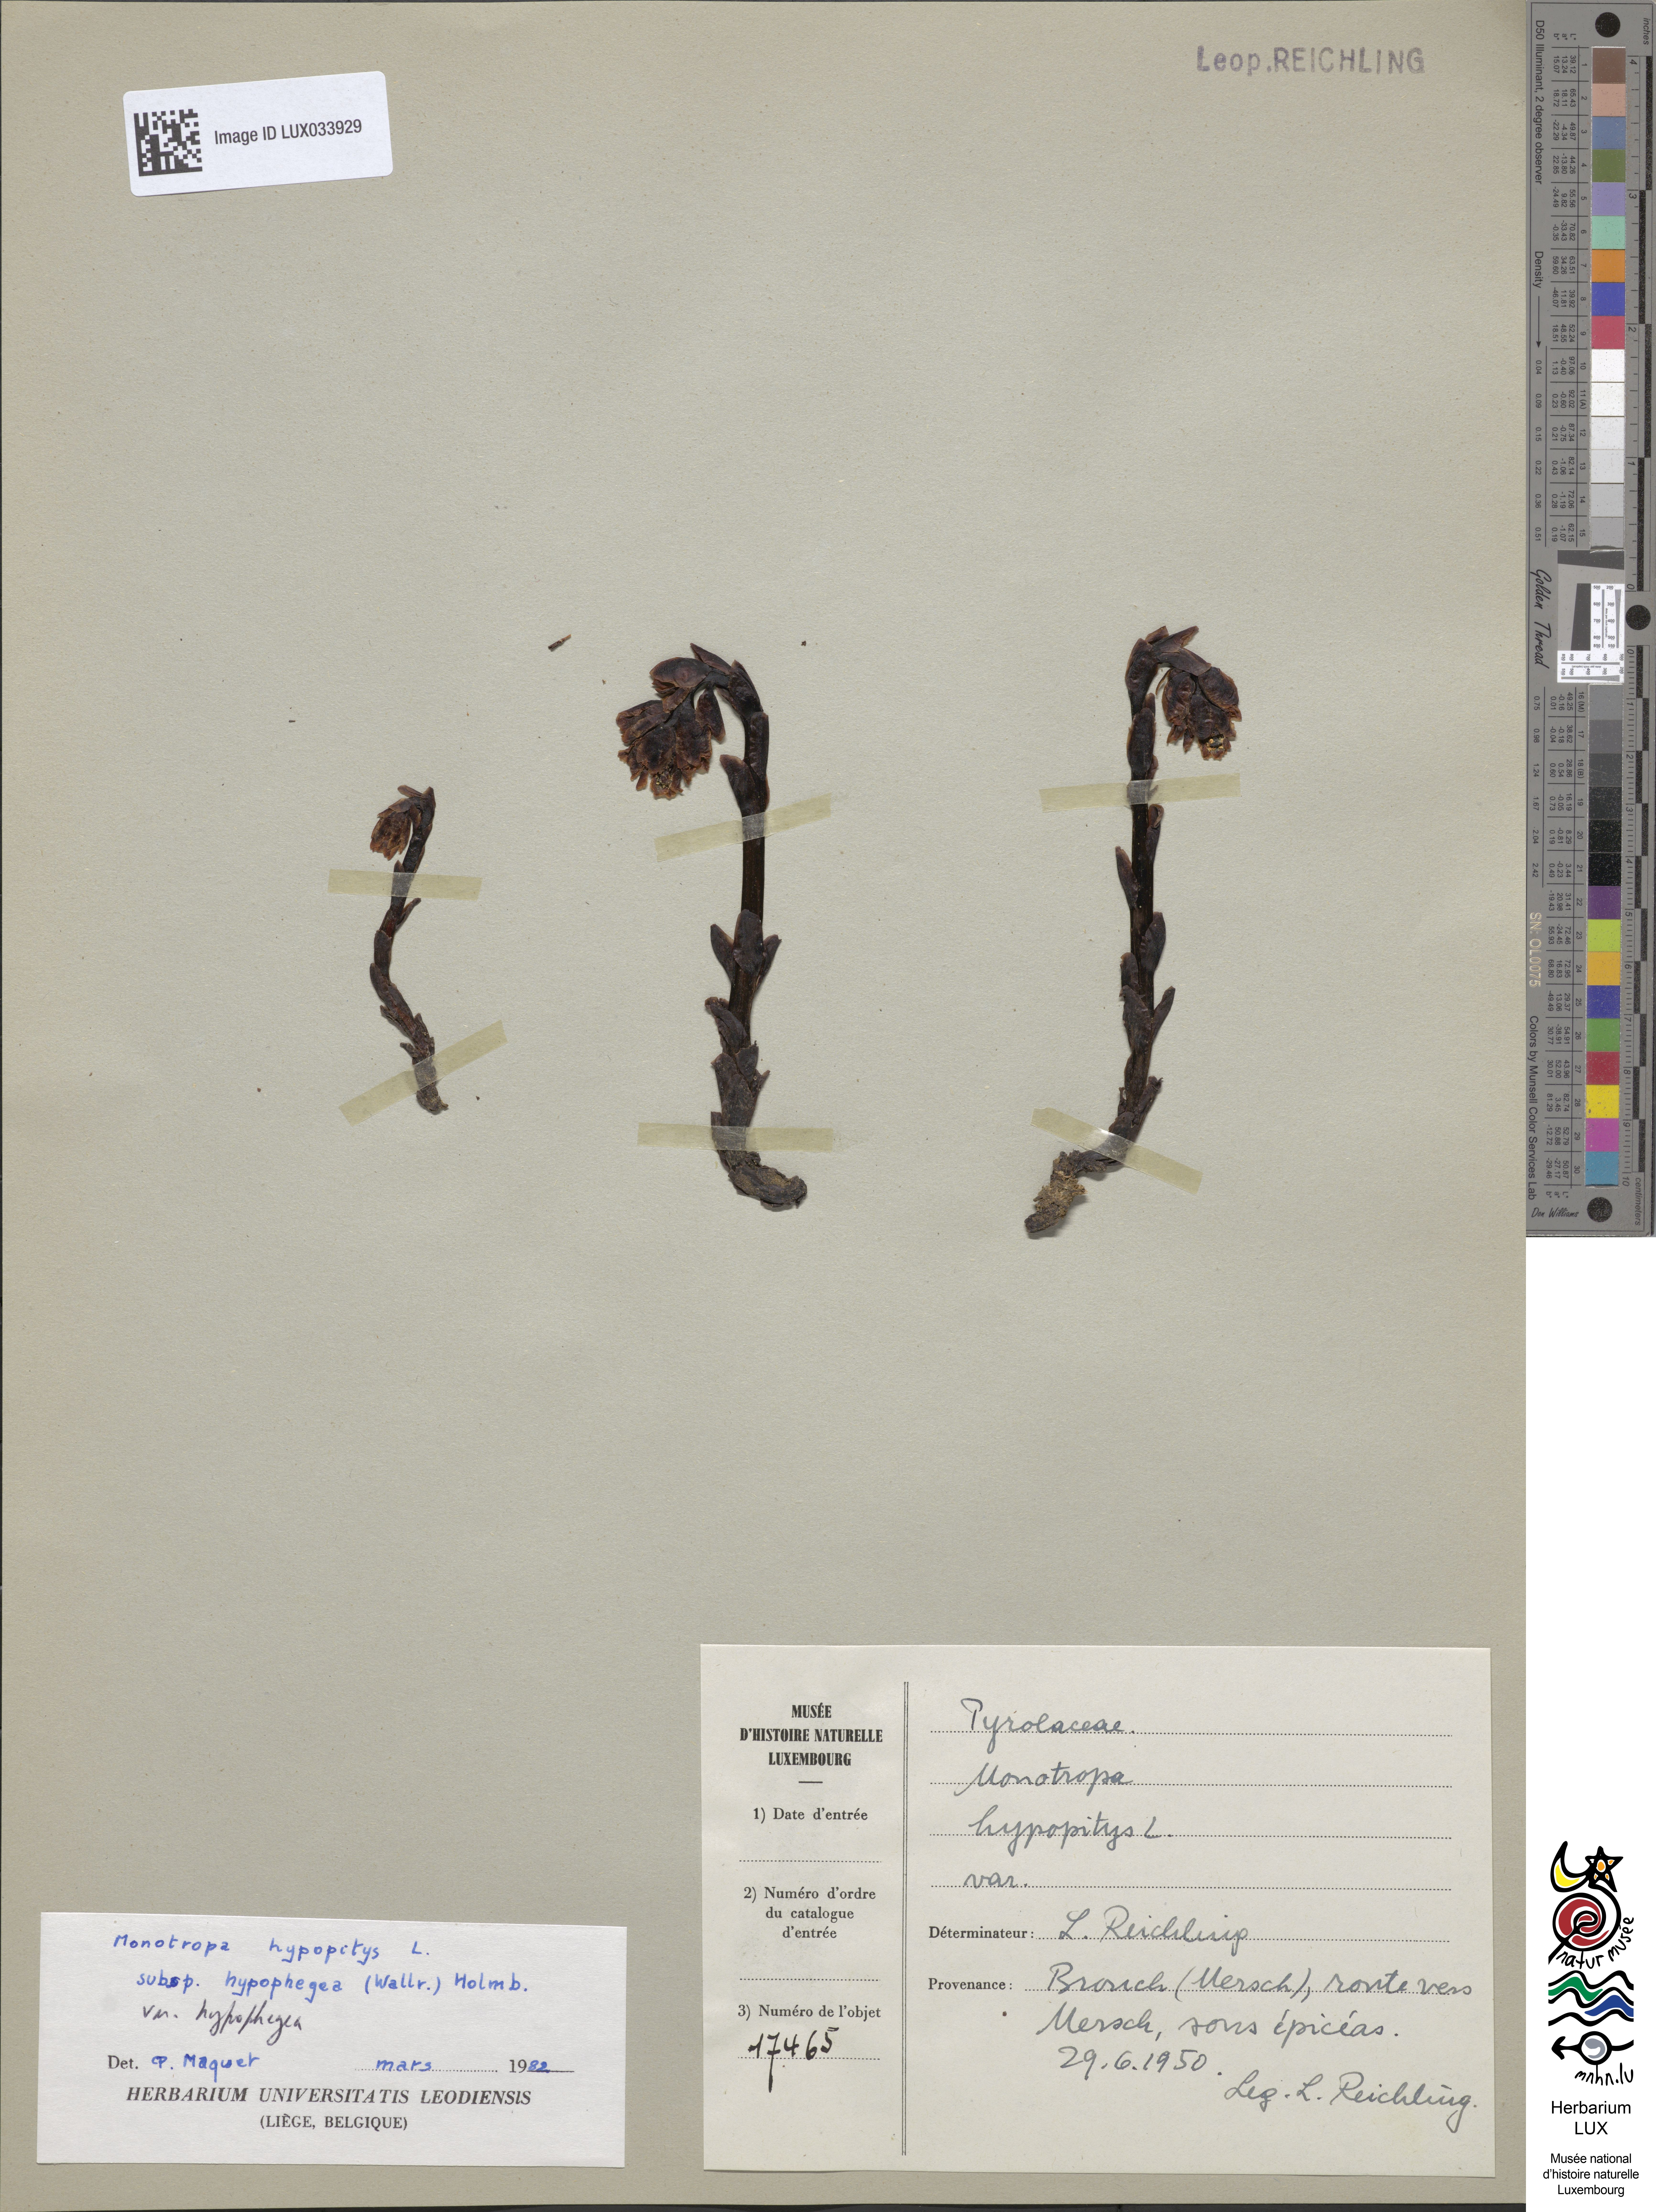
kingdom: Plantae
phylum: Tracheophyta
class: Magnoliopsida
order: Ericales
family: Ericaceae
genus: Hypopitys
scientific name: Hypopitys monotropa
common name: Yellow bird's-nest
